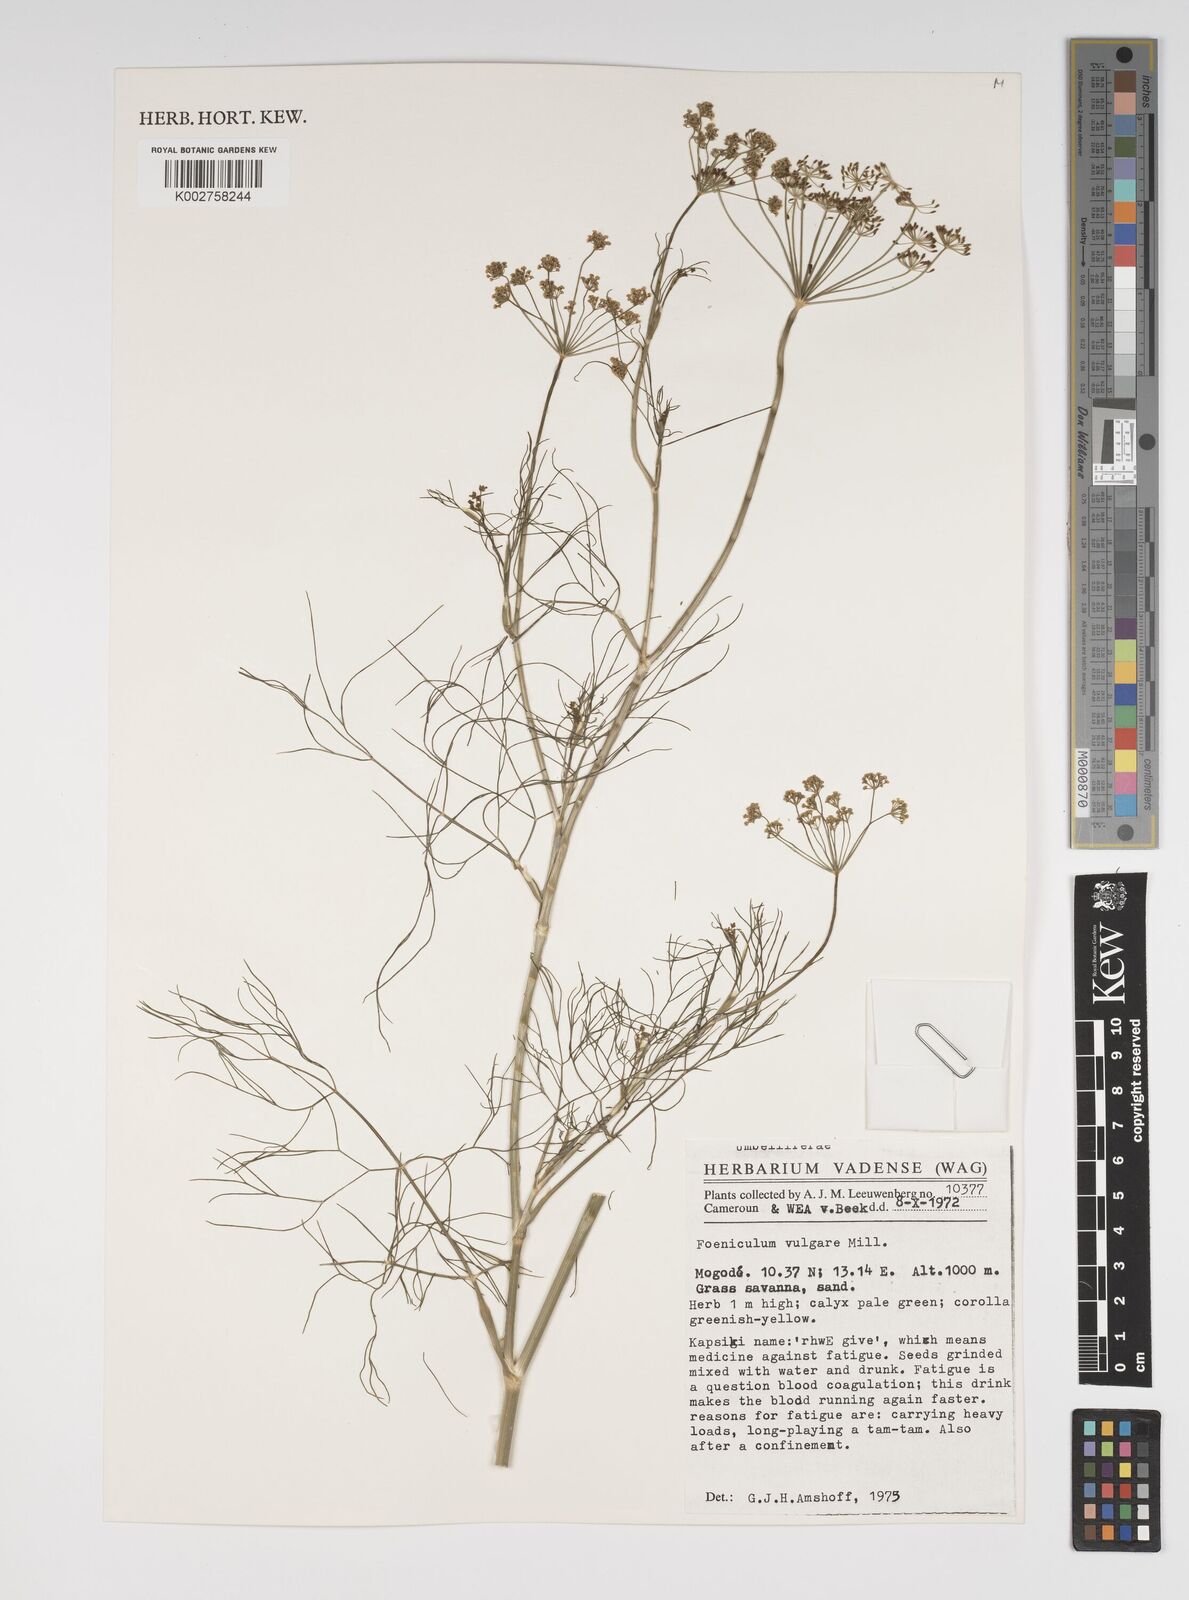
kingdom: Plantae
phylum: Tracheophyta
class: Magnoliopsida
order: Apiales
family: Apiaceae
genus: Foeniculum
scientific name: Foeniculum vulgare
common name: Fennel
